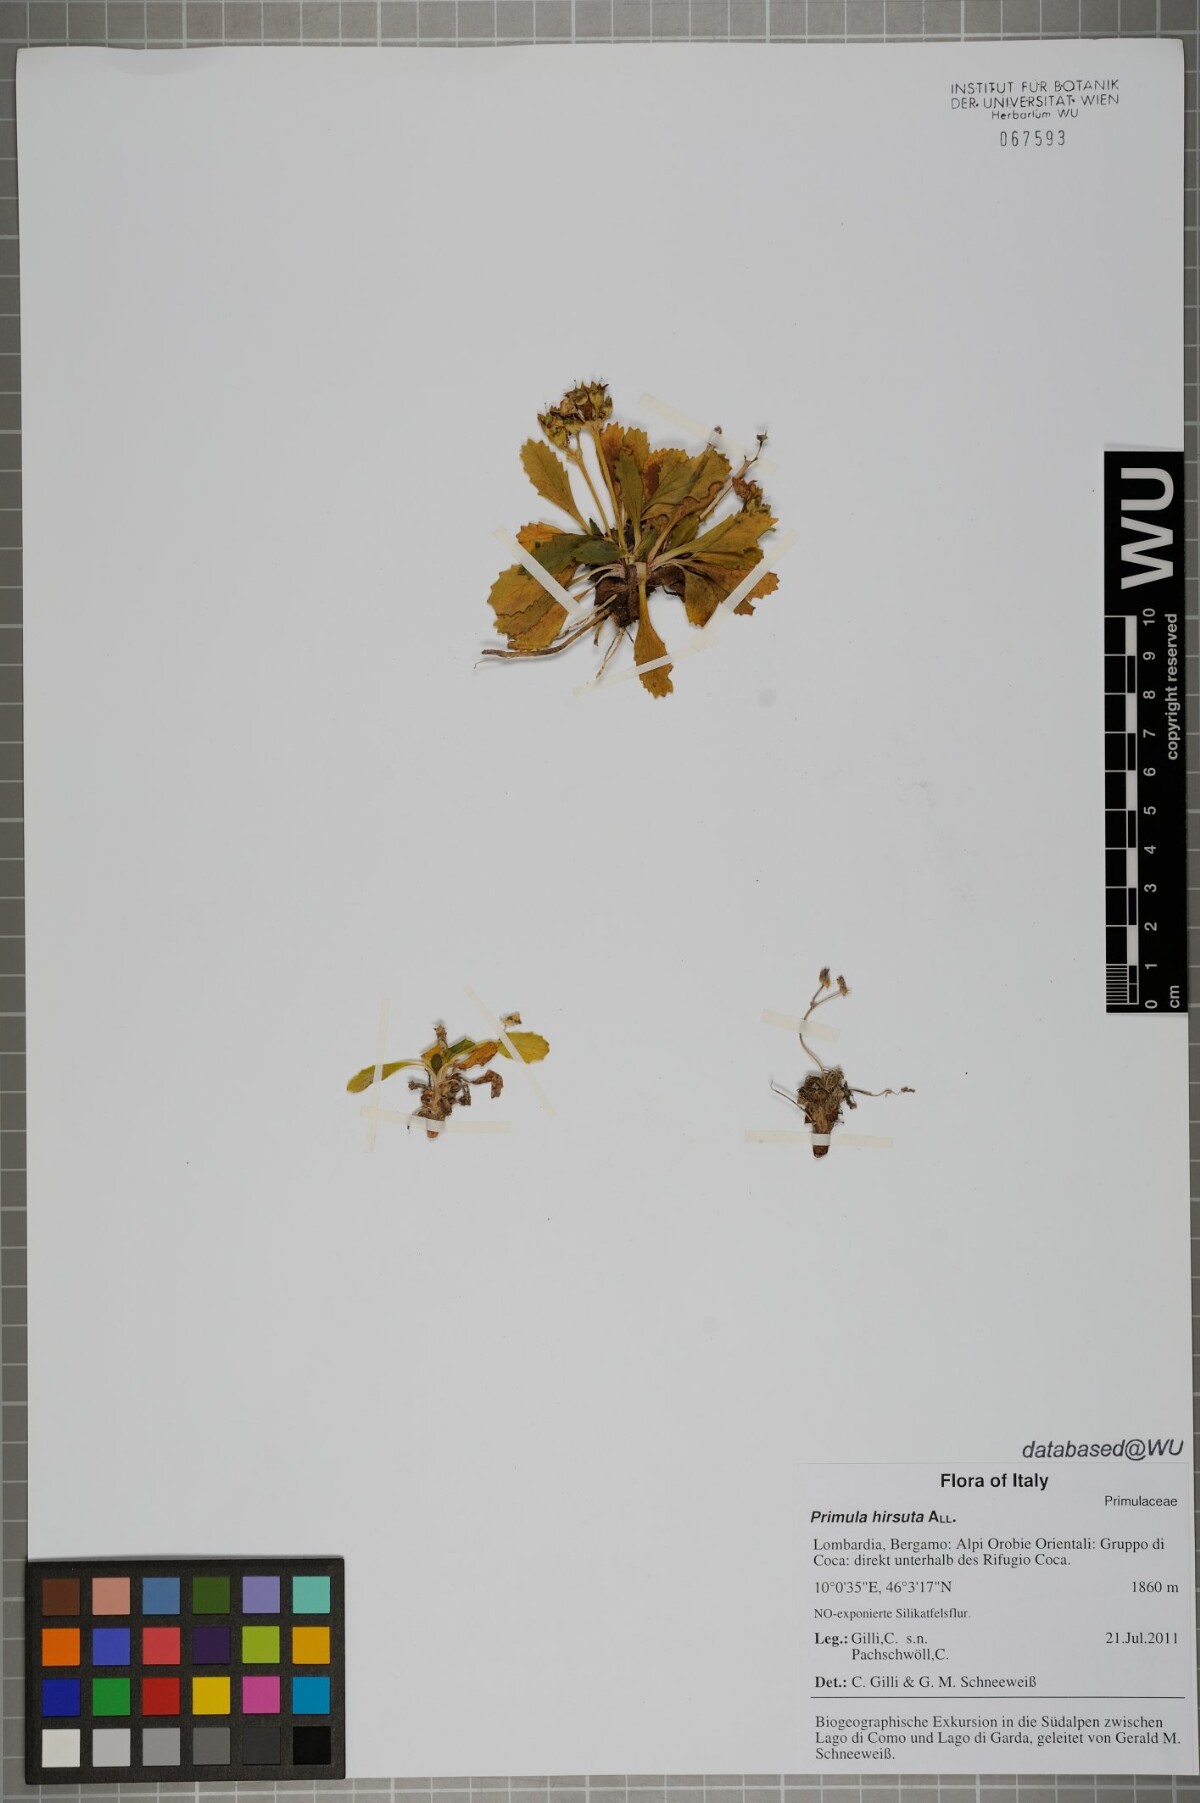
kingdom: Plantae
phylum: Tracheophyta
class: Magnoliopsida
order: Ericales
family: Primulaceae
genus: Primula
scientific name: Primula hirsuta
